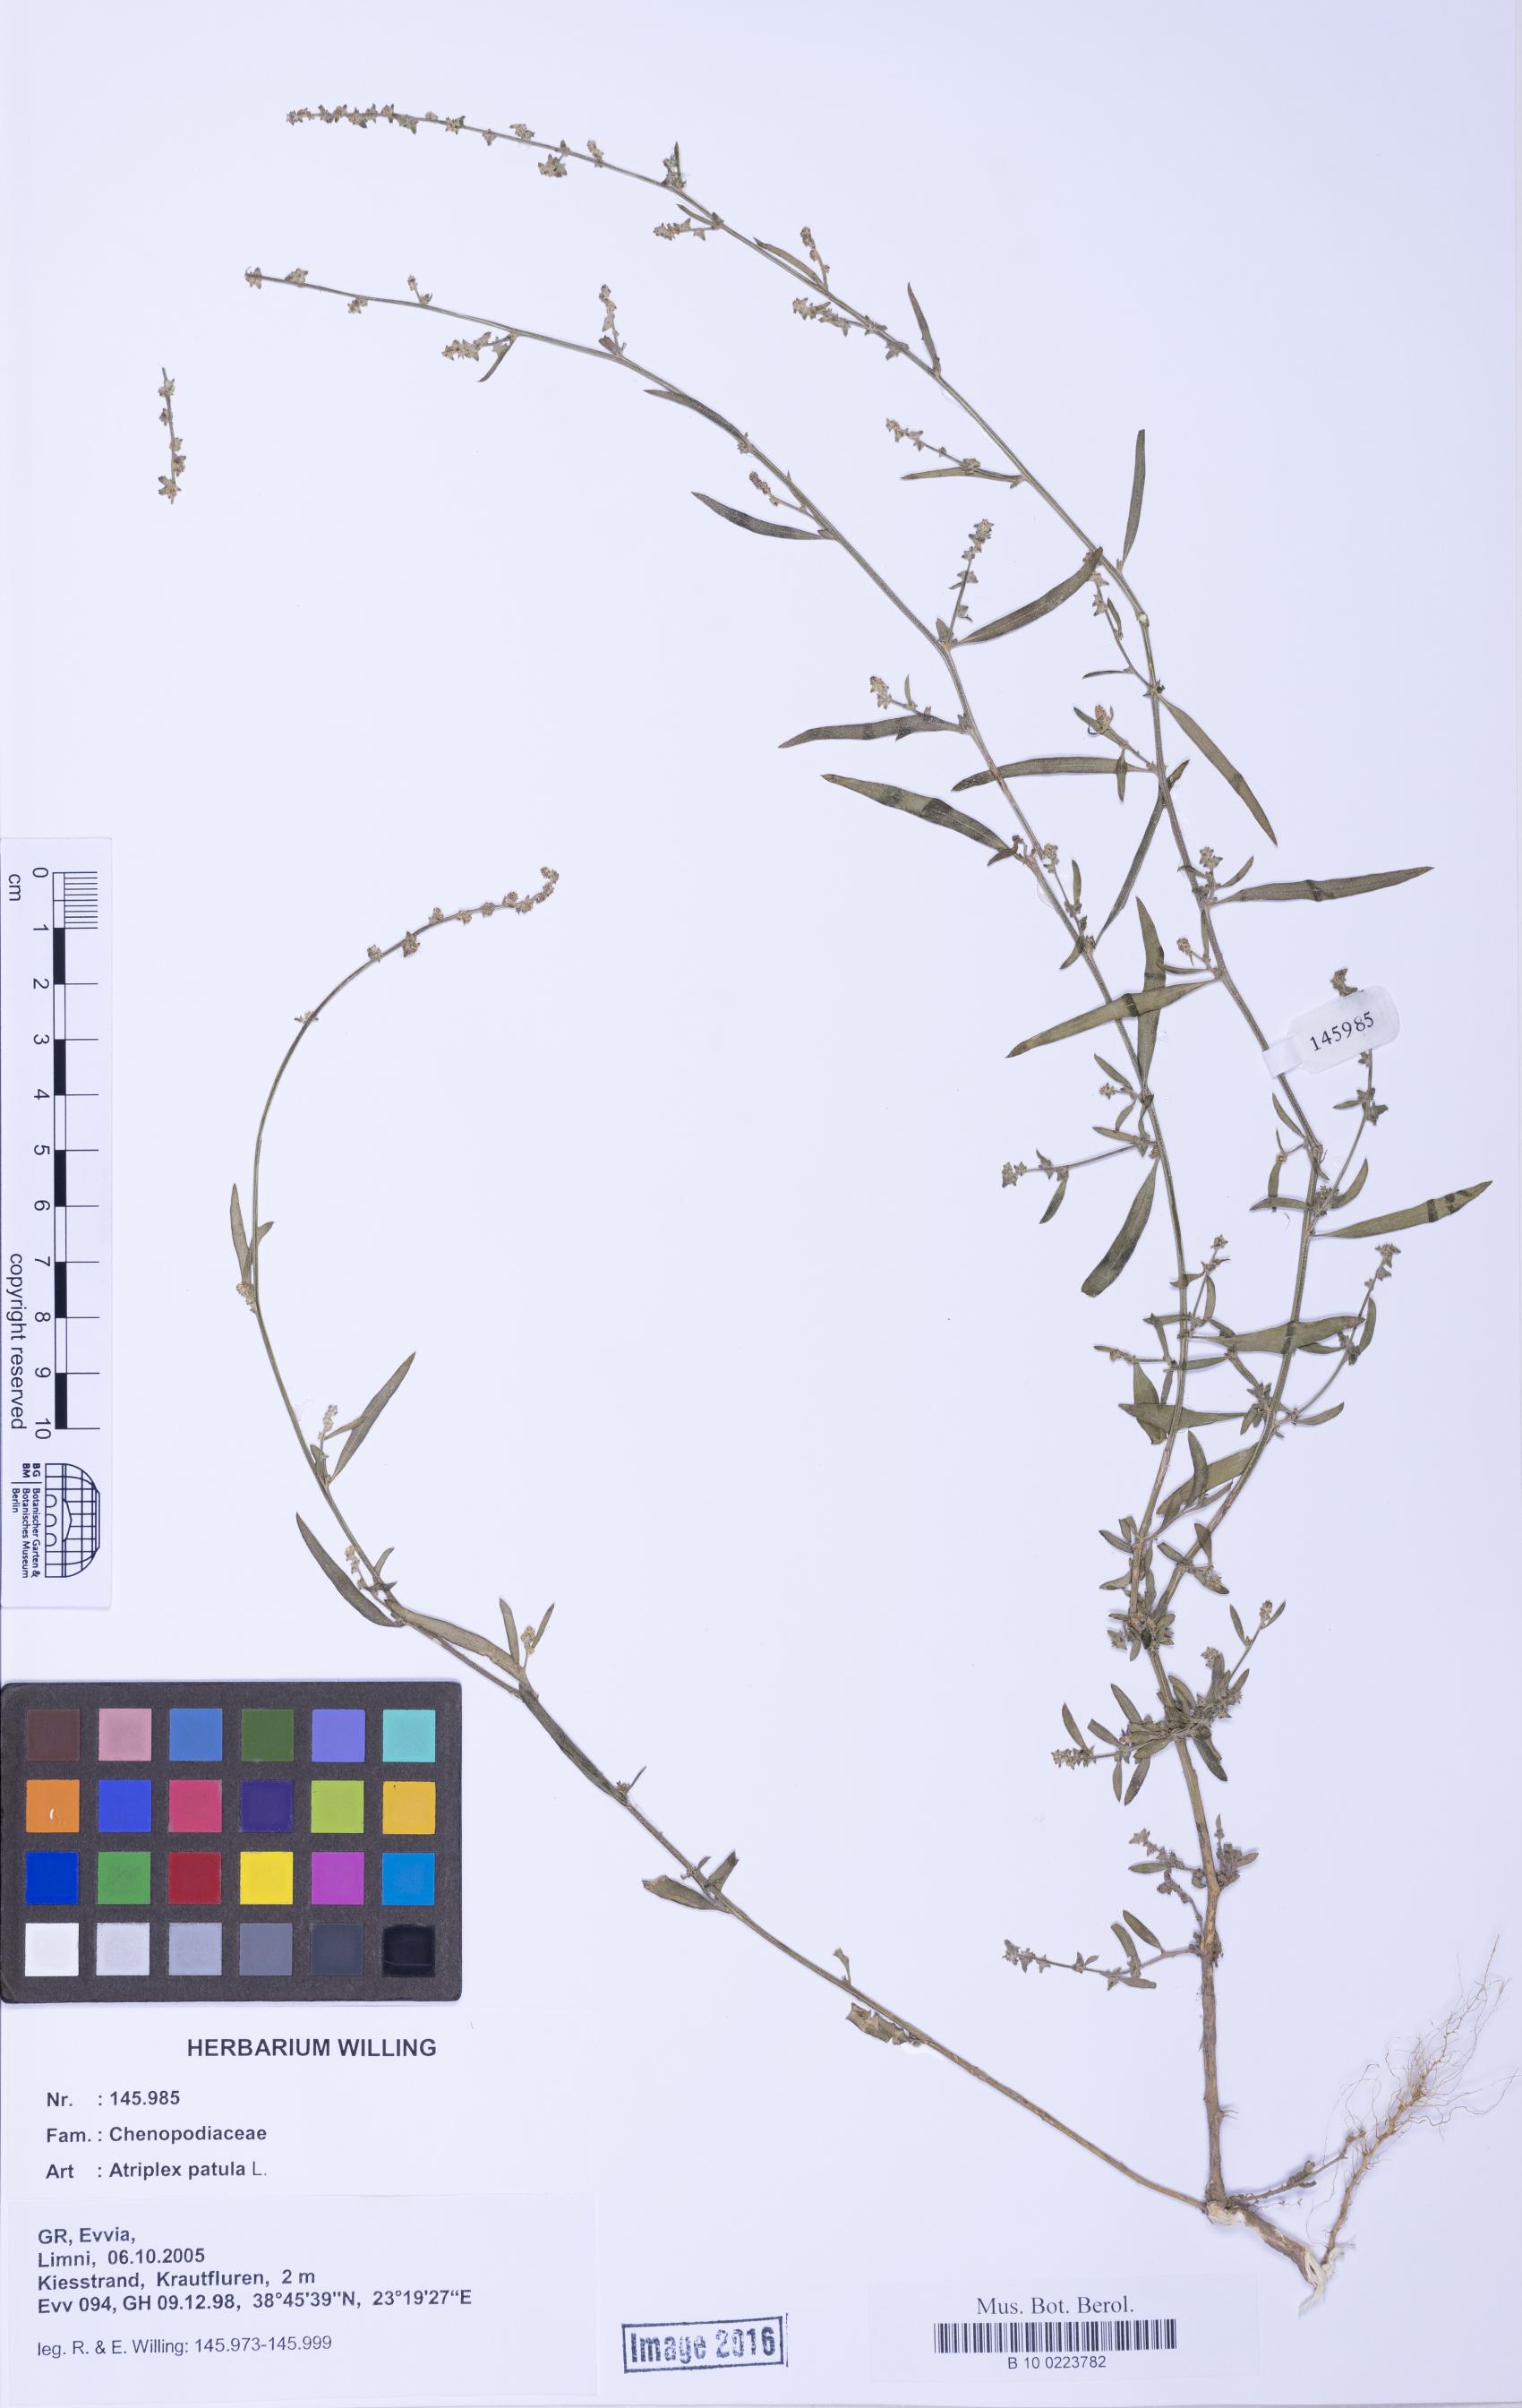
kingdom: Plantae
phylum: Tracheophyta
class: Magnoliopsida
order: Caryophyllales
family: Amaranthaceae
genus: Atriplex
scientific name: Atriplex patula
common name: Common orache
